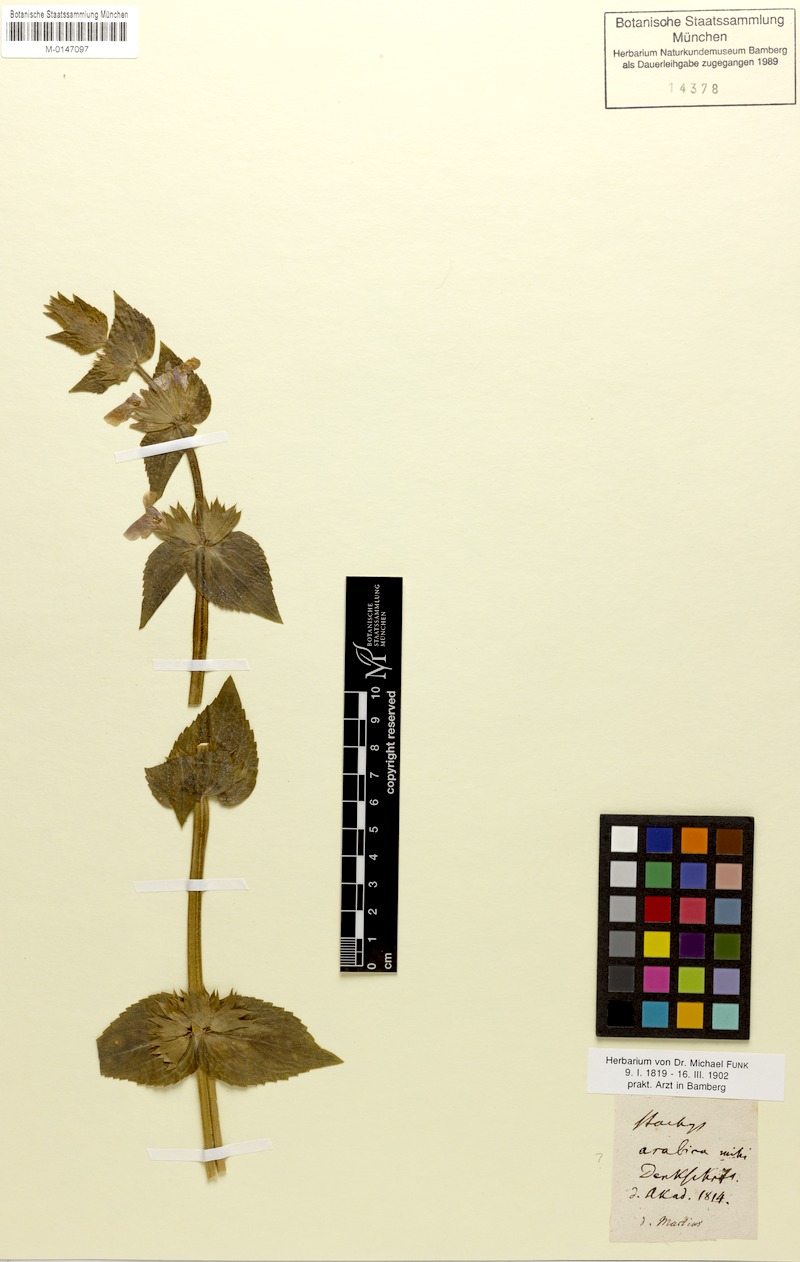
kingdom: Plantae
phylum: Tracheophyta
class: Magnoliopsida
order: Lamiales
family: Lamiaceae
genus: Stachys
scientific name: Stachys arabica
